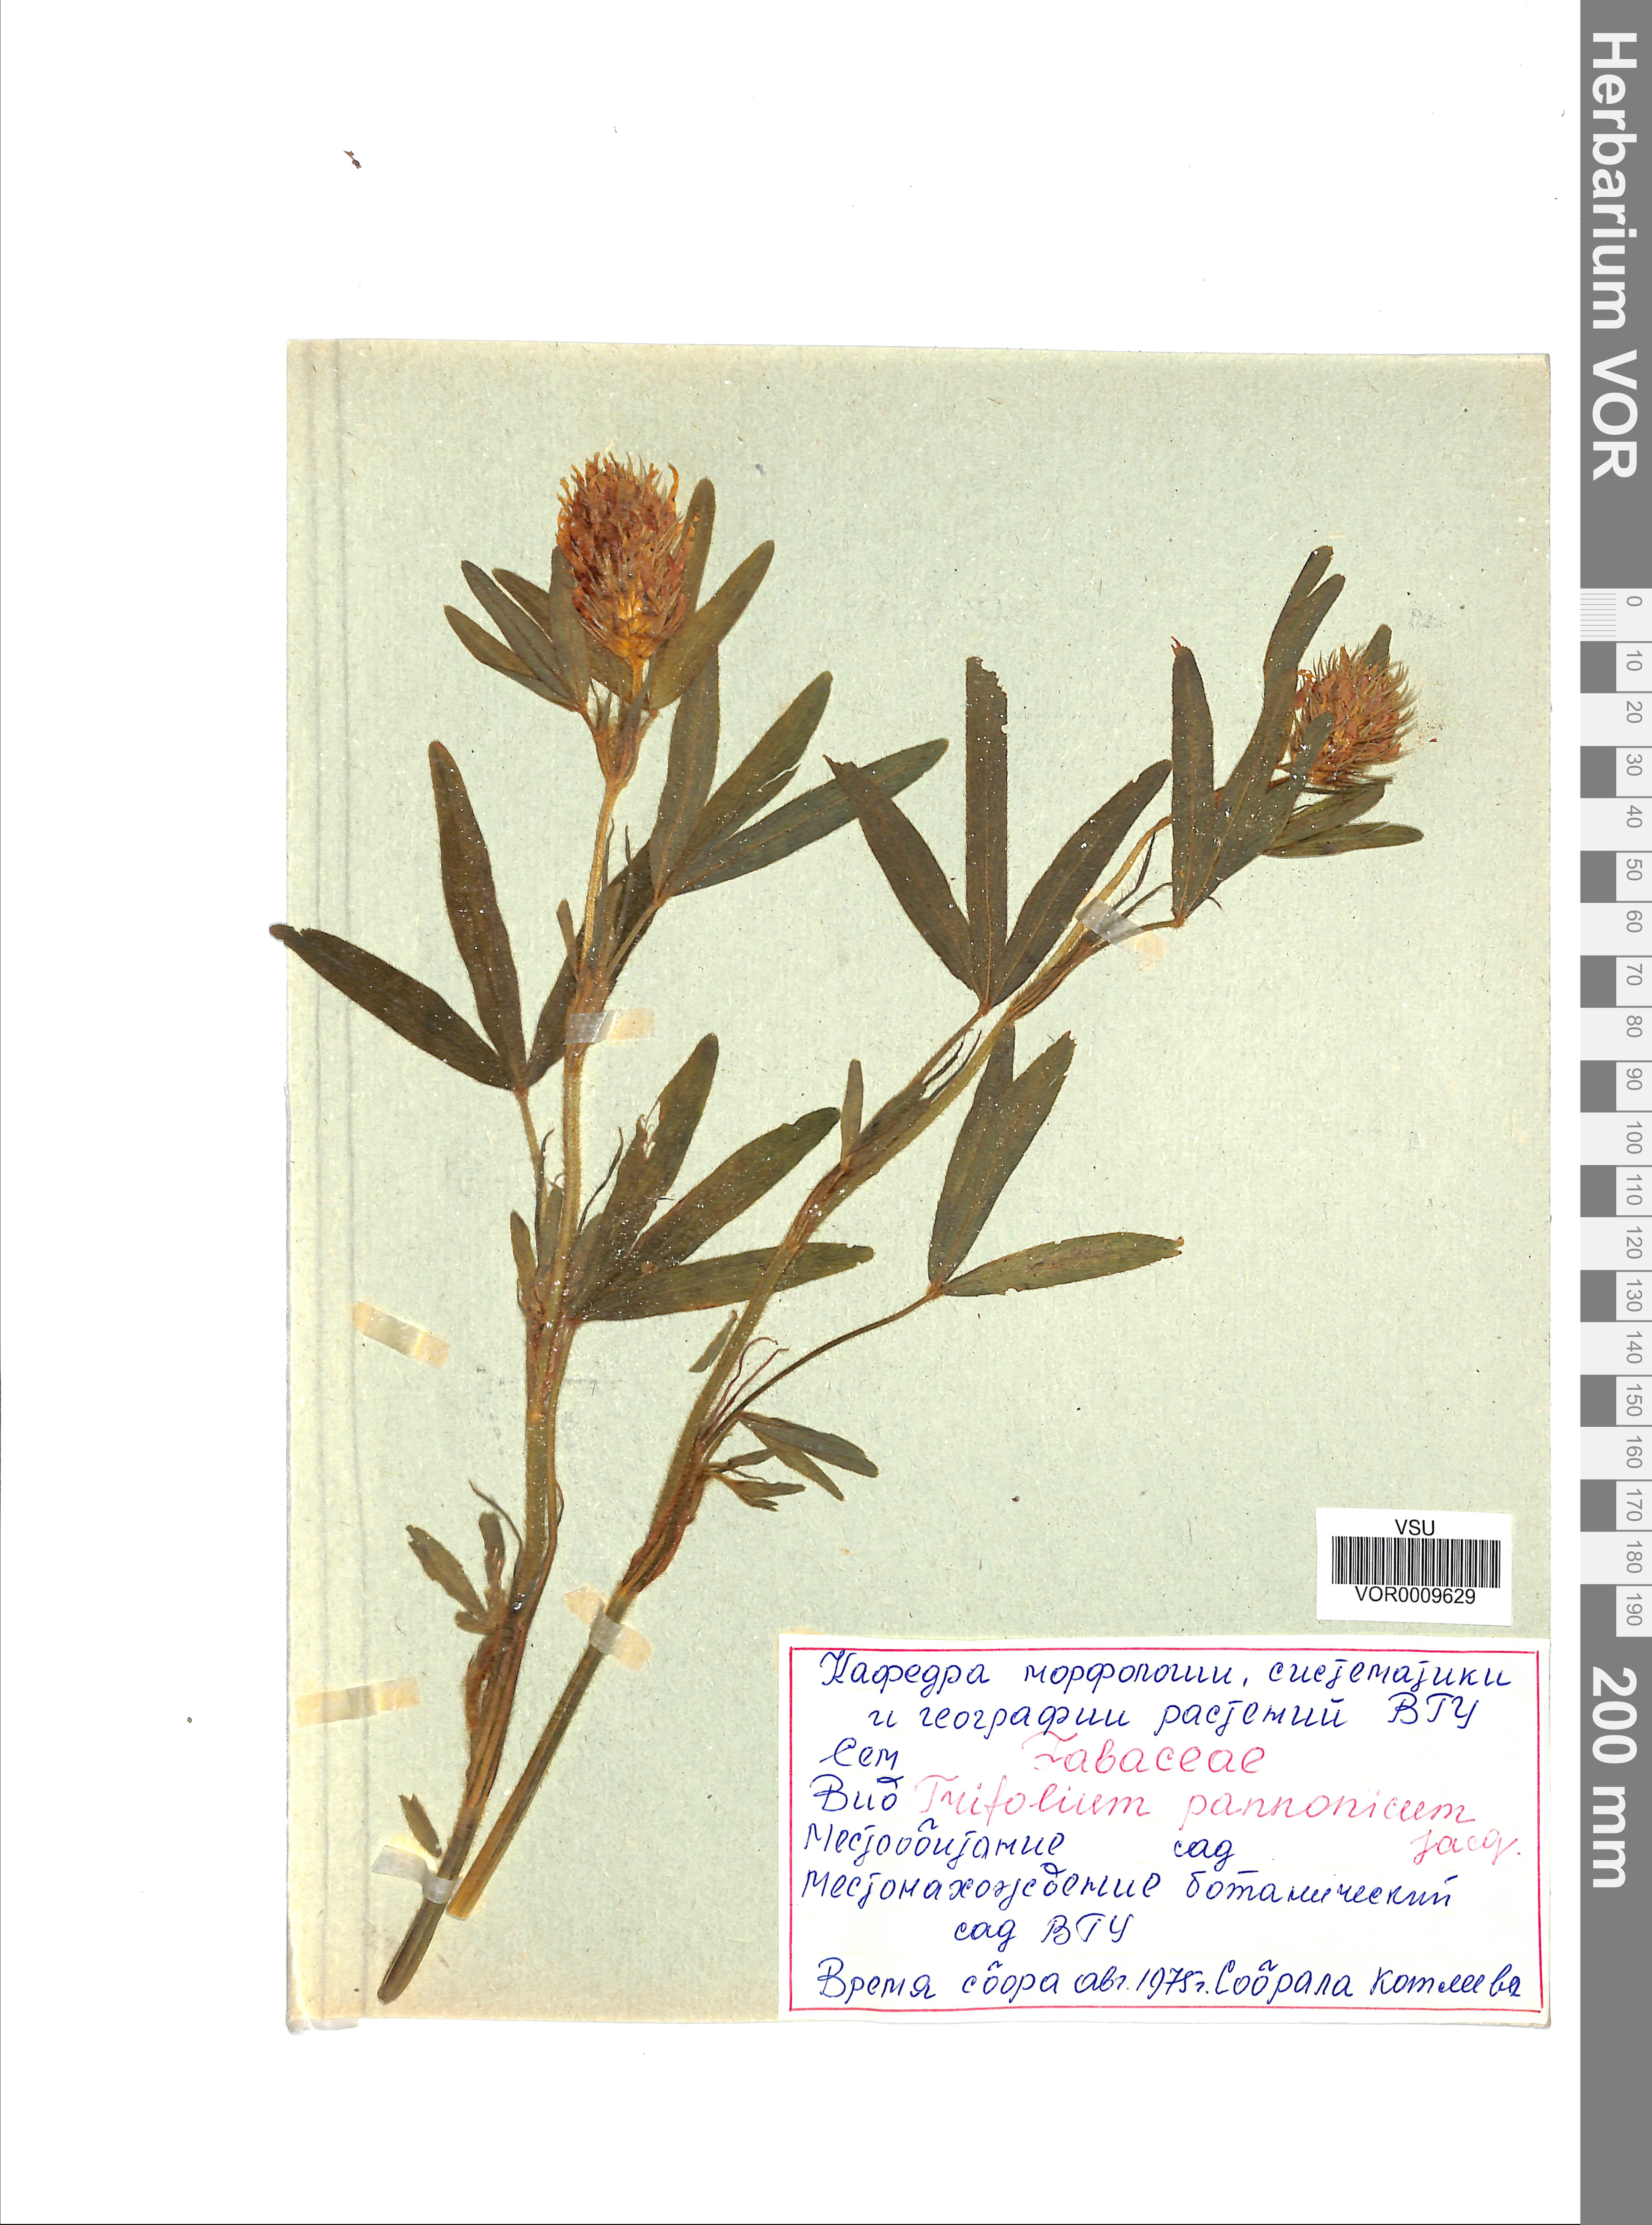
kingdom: Plantae
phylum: Tracheophyta
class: Magnoliopsida
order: Fabales
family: Fabaceae
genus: Trifolium
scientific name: Trifolium pannonicum
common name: Hungarian clover
